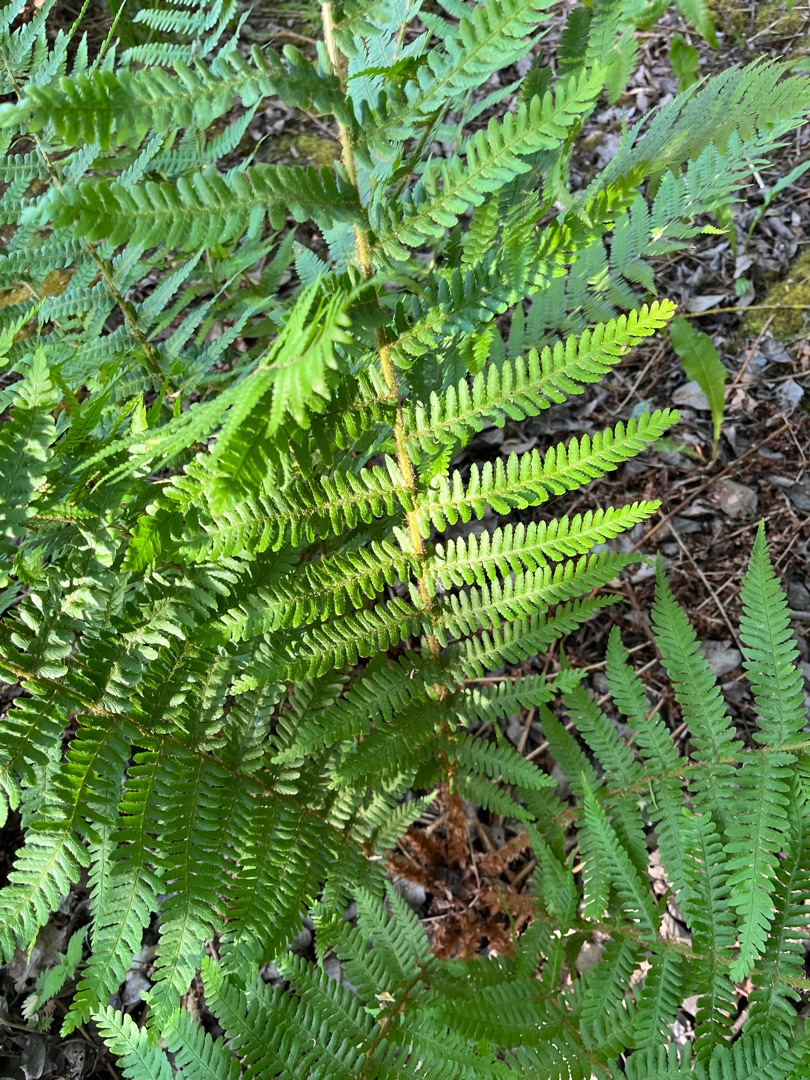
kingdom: Plantae
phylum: Tracheophyta
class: Polypodiopsida
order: Polypodiales
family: Dryopteridaceae
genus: Dryopteris
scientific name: Dryopteris filix-mas
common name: Almindelig mangeløv
